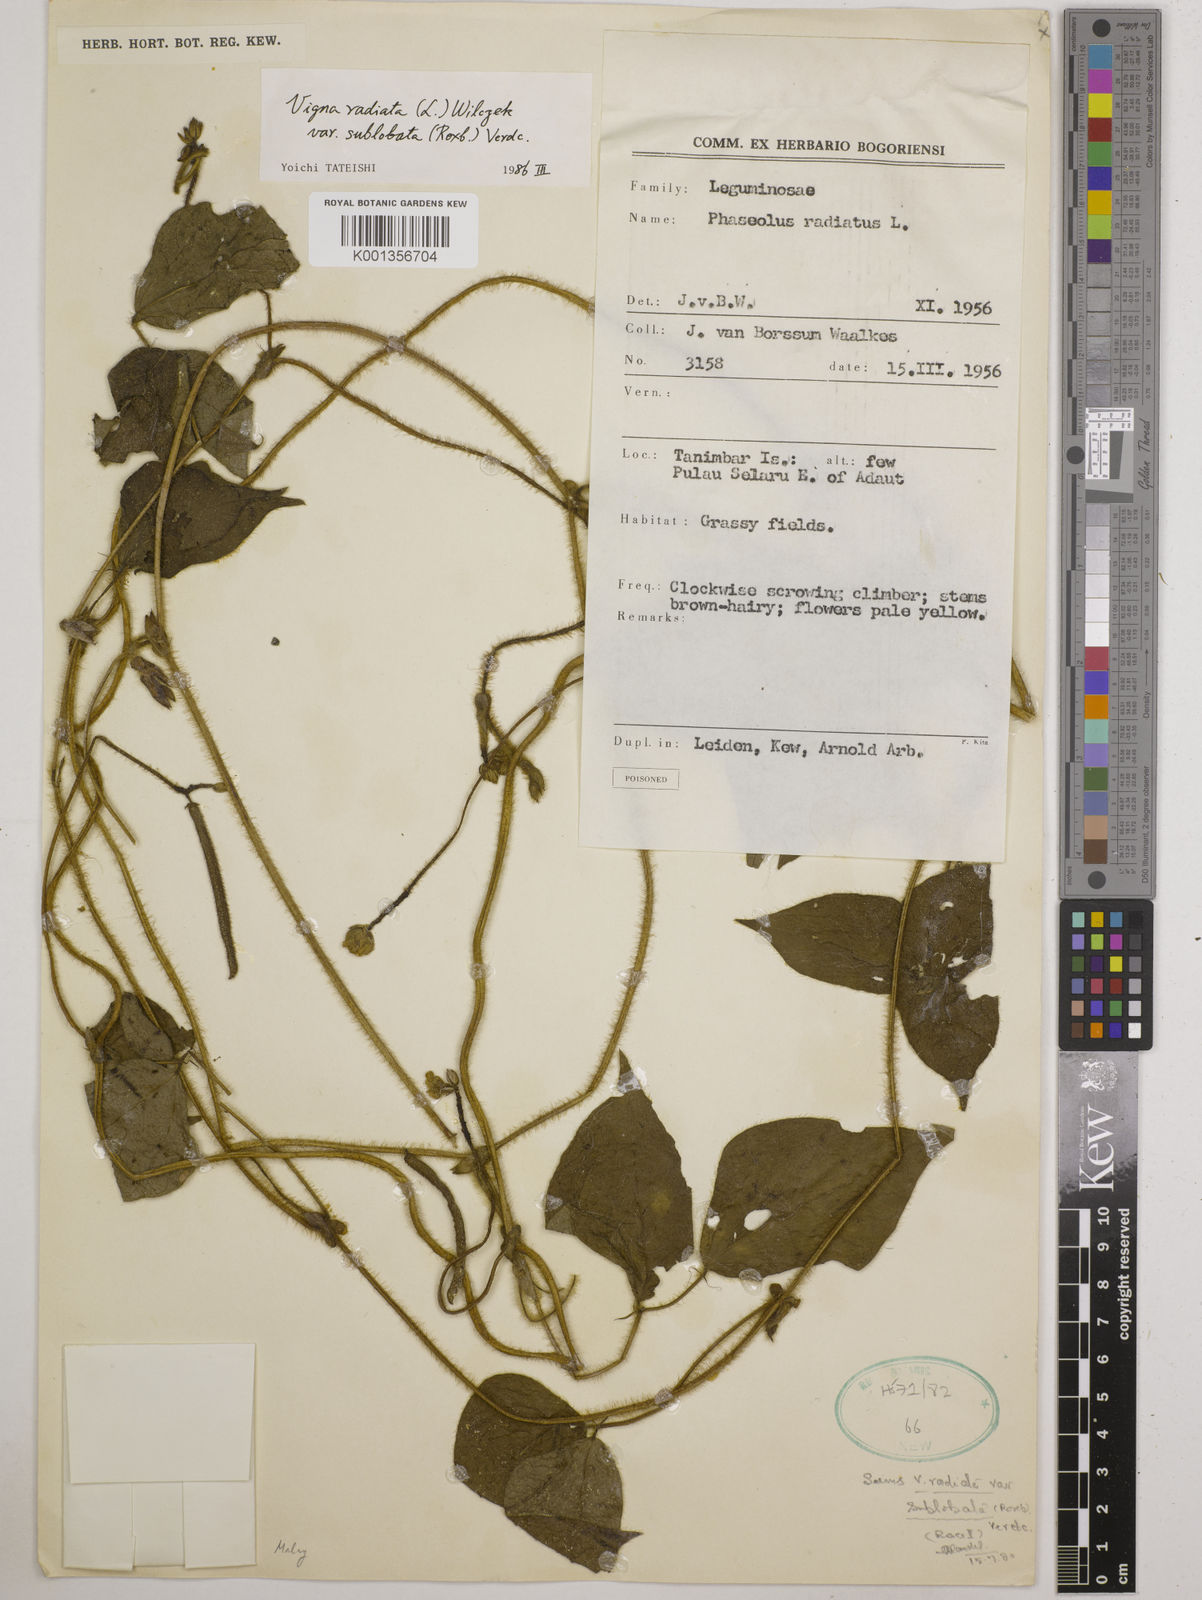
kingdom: Plantae
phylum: Tracheophyta
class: Magnoliopsida
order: Fabales
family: Fabaceae
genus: Vigna
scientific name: Vigna radiata
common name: Mung-bean
